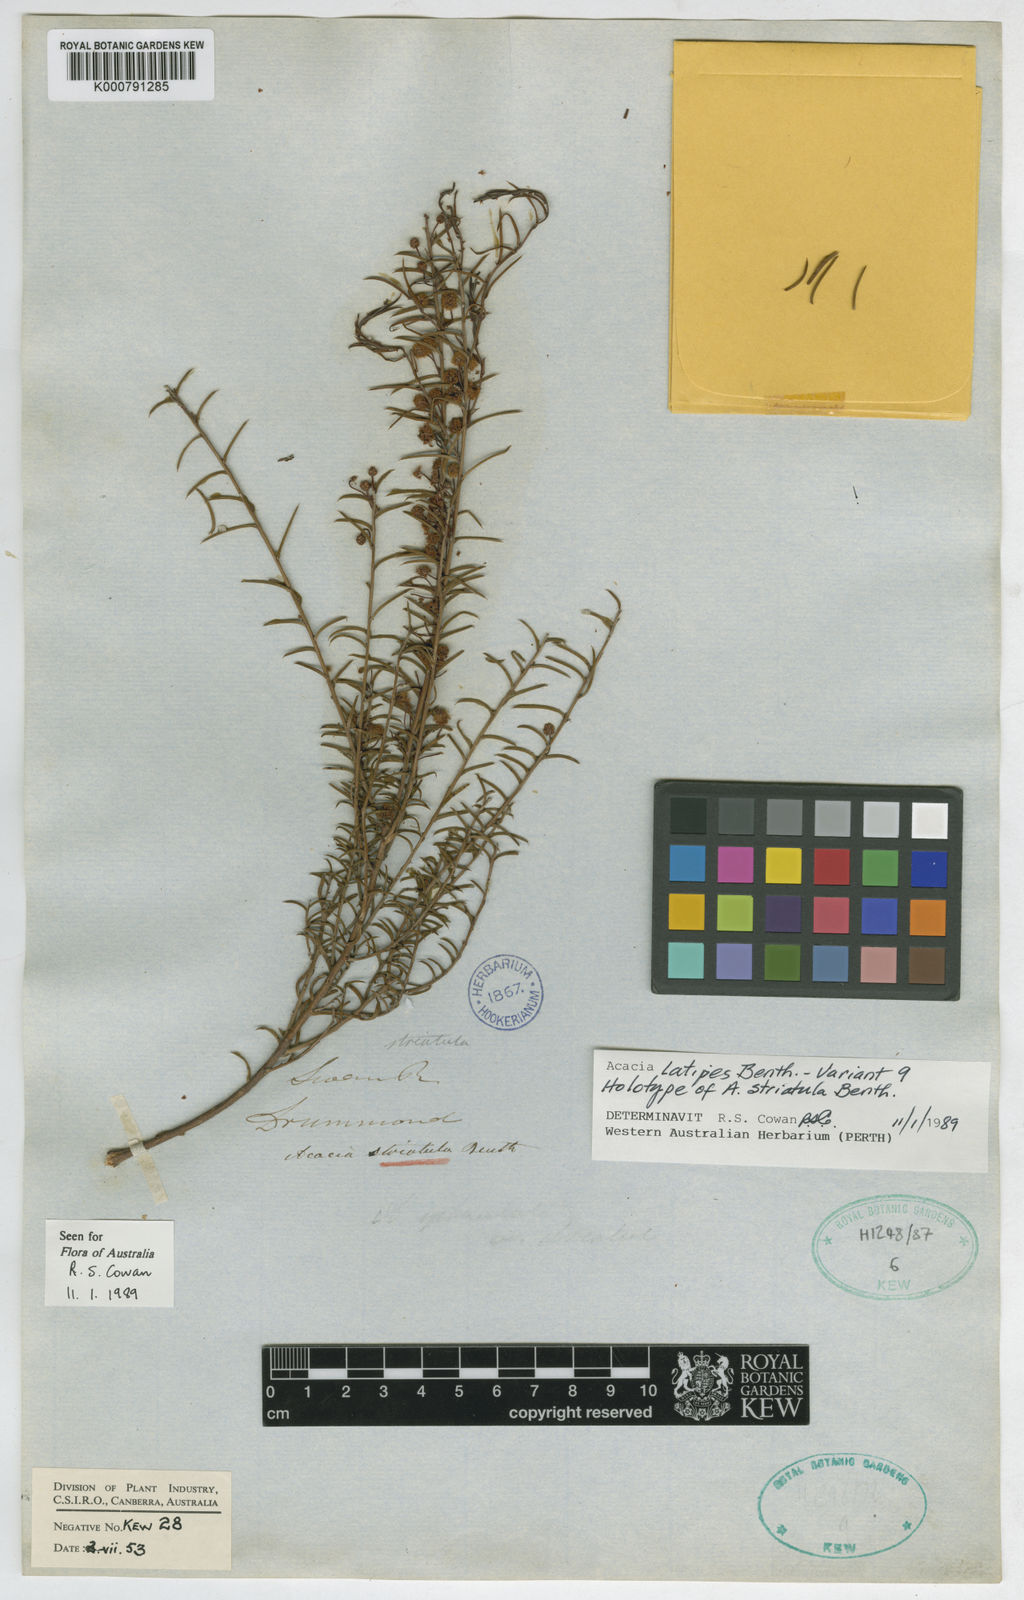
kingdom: Plantae
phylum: Tracheophyta
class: Magnoliopsida
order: Fabales
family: Fabaceae
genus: Acacia
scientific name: Acacia latipes
